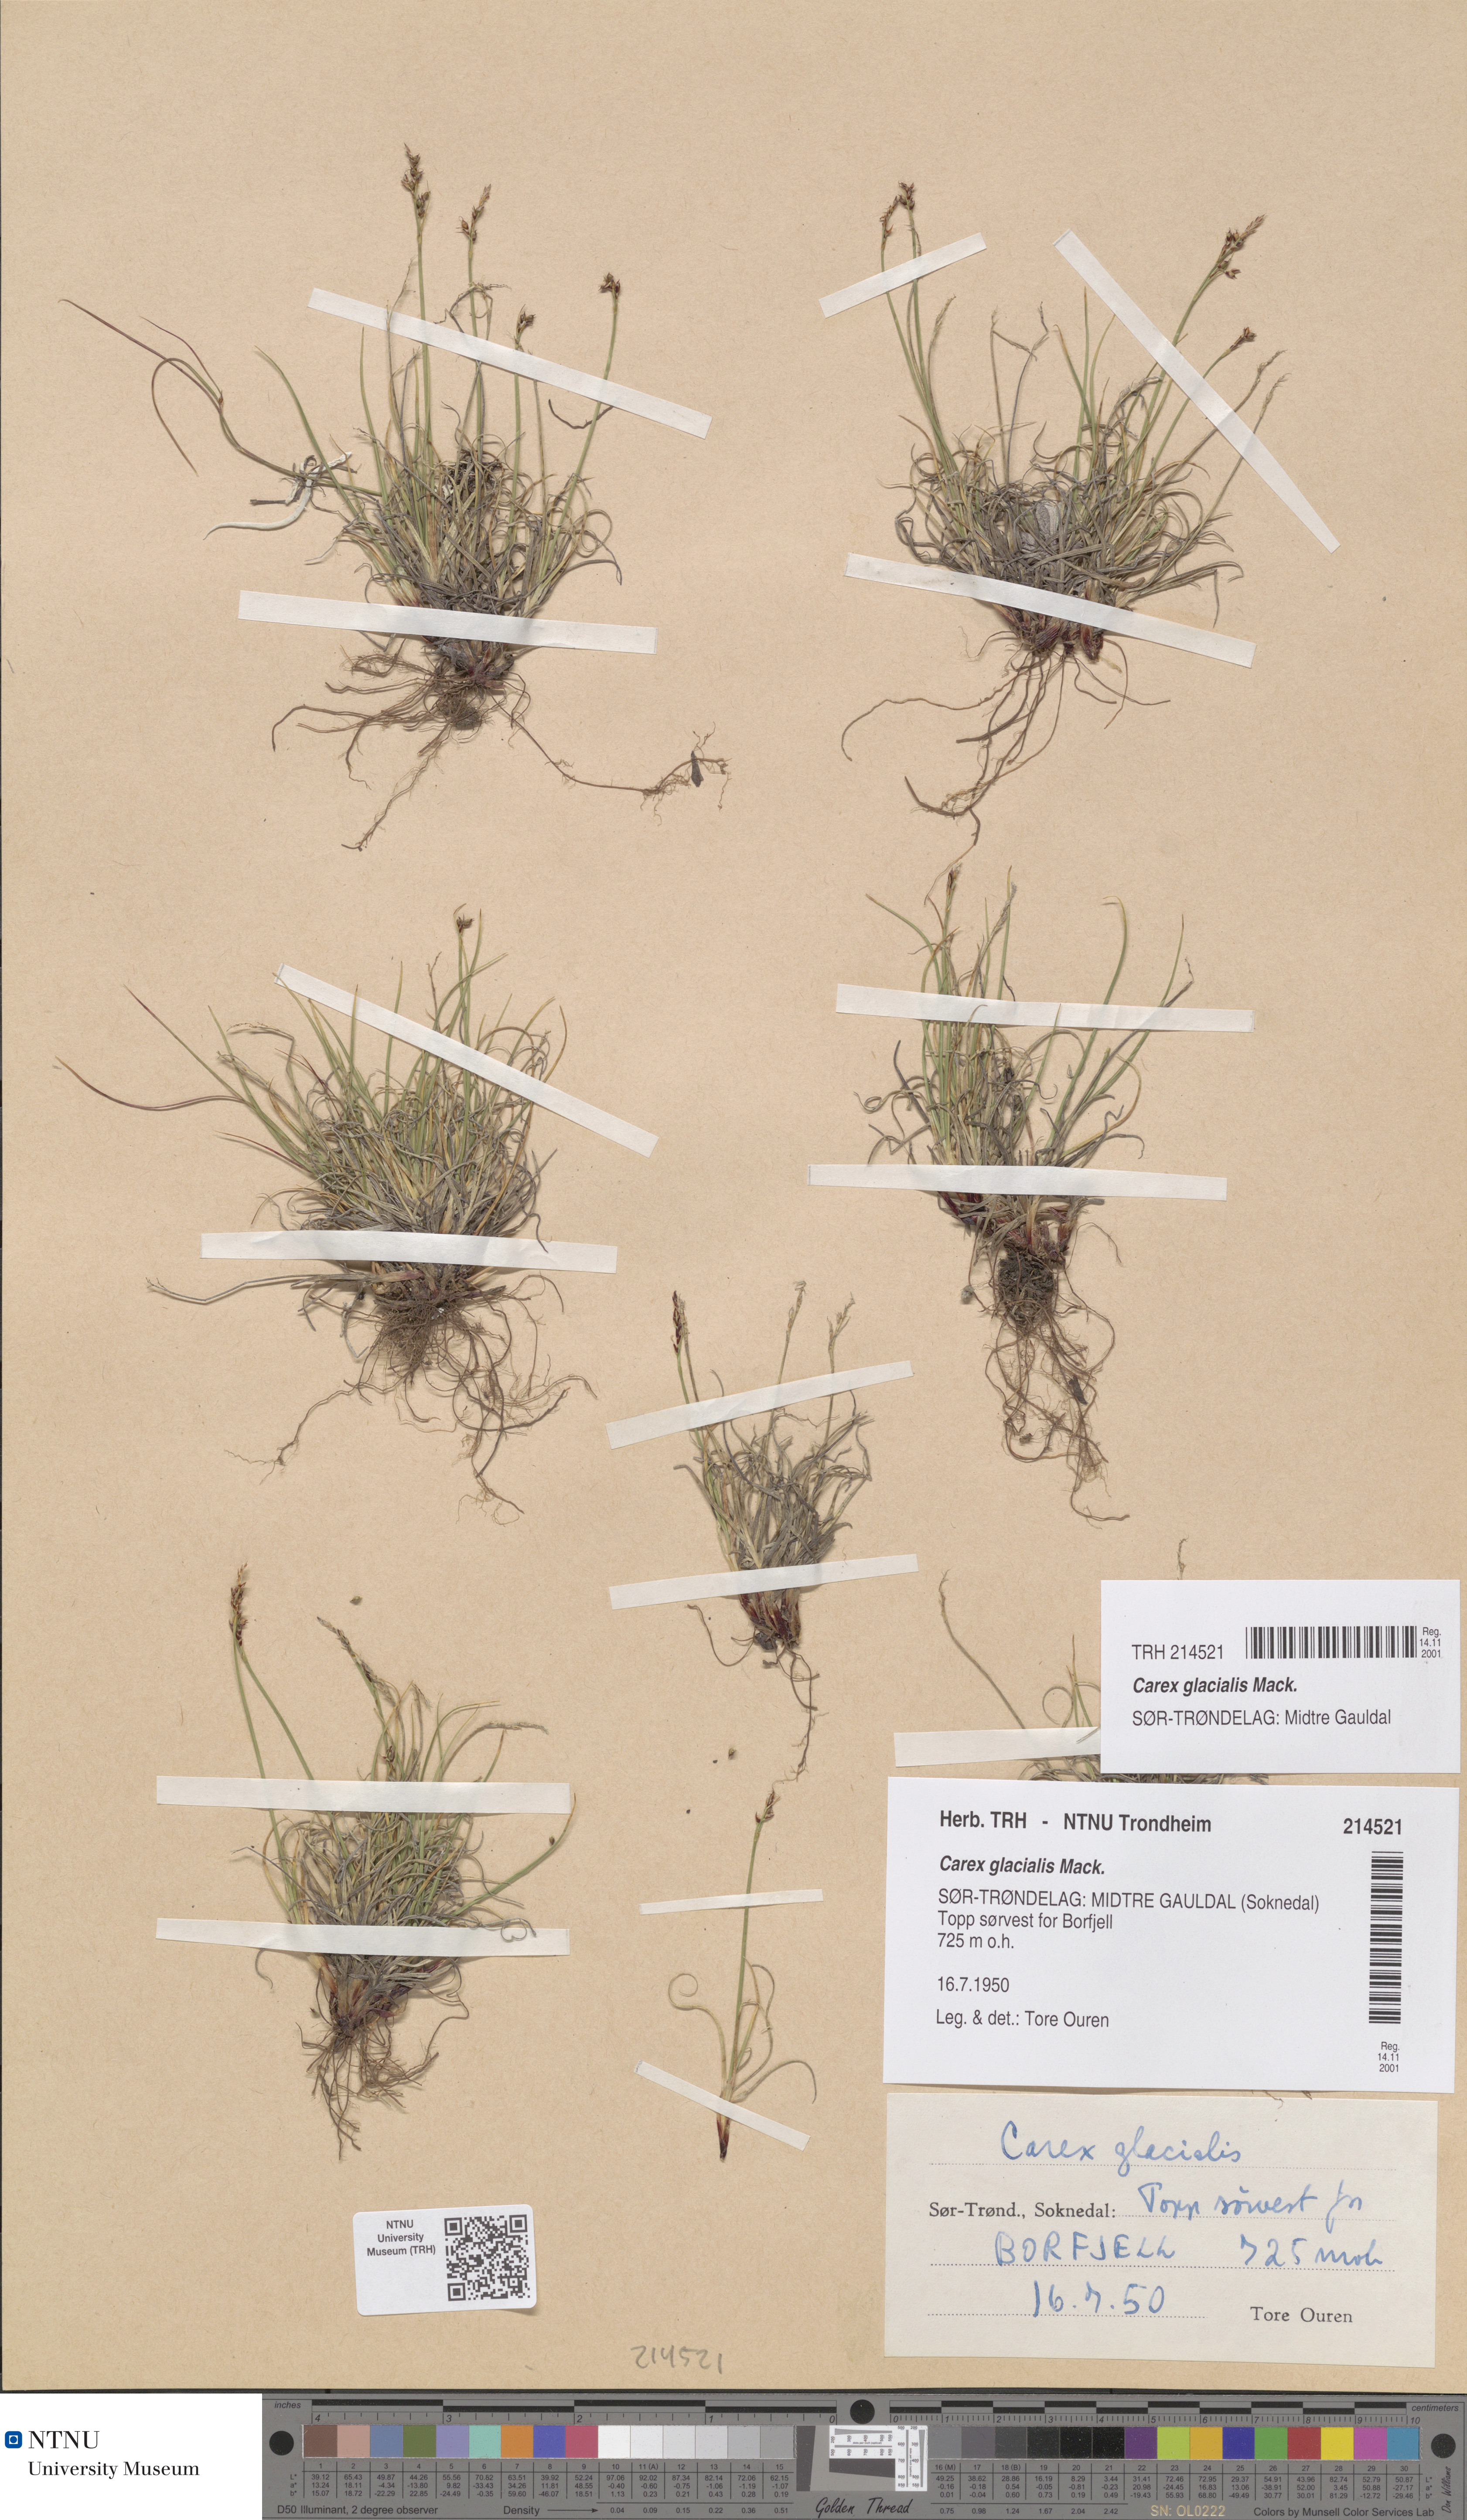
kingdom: Plantae
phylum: Tracheophyta
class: Liliopsida
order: Poales
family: Cyperaceae
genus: Carex
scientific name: Carex glacialis
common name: Newfoundland sedge
